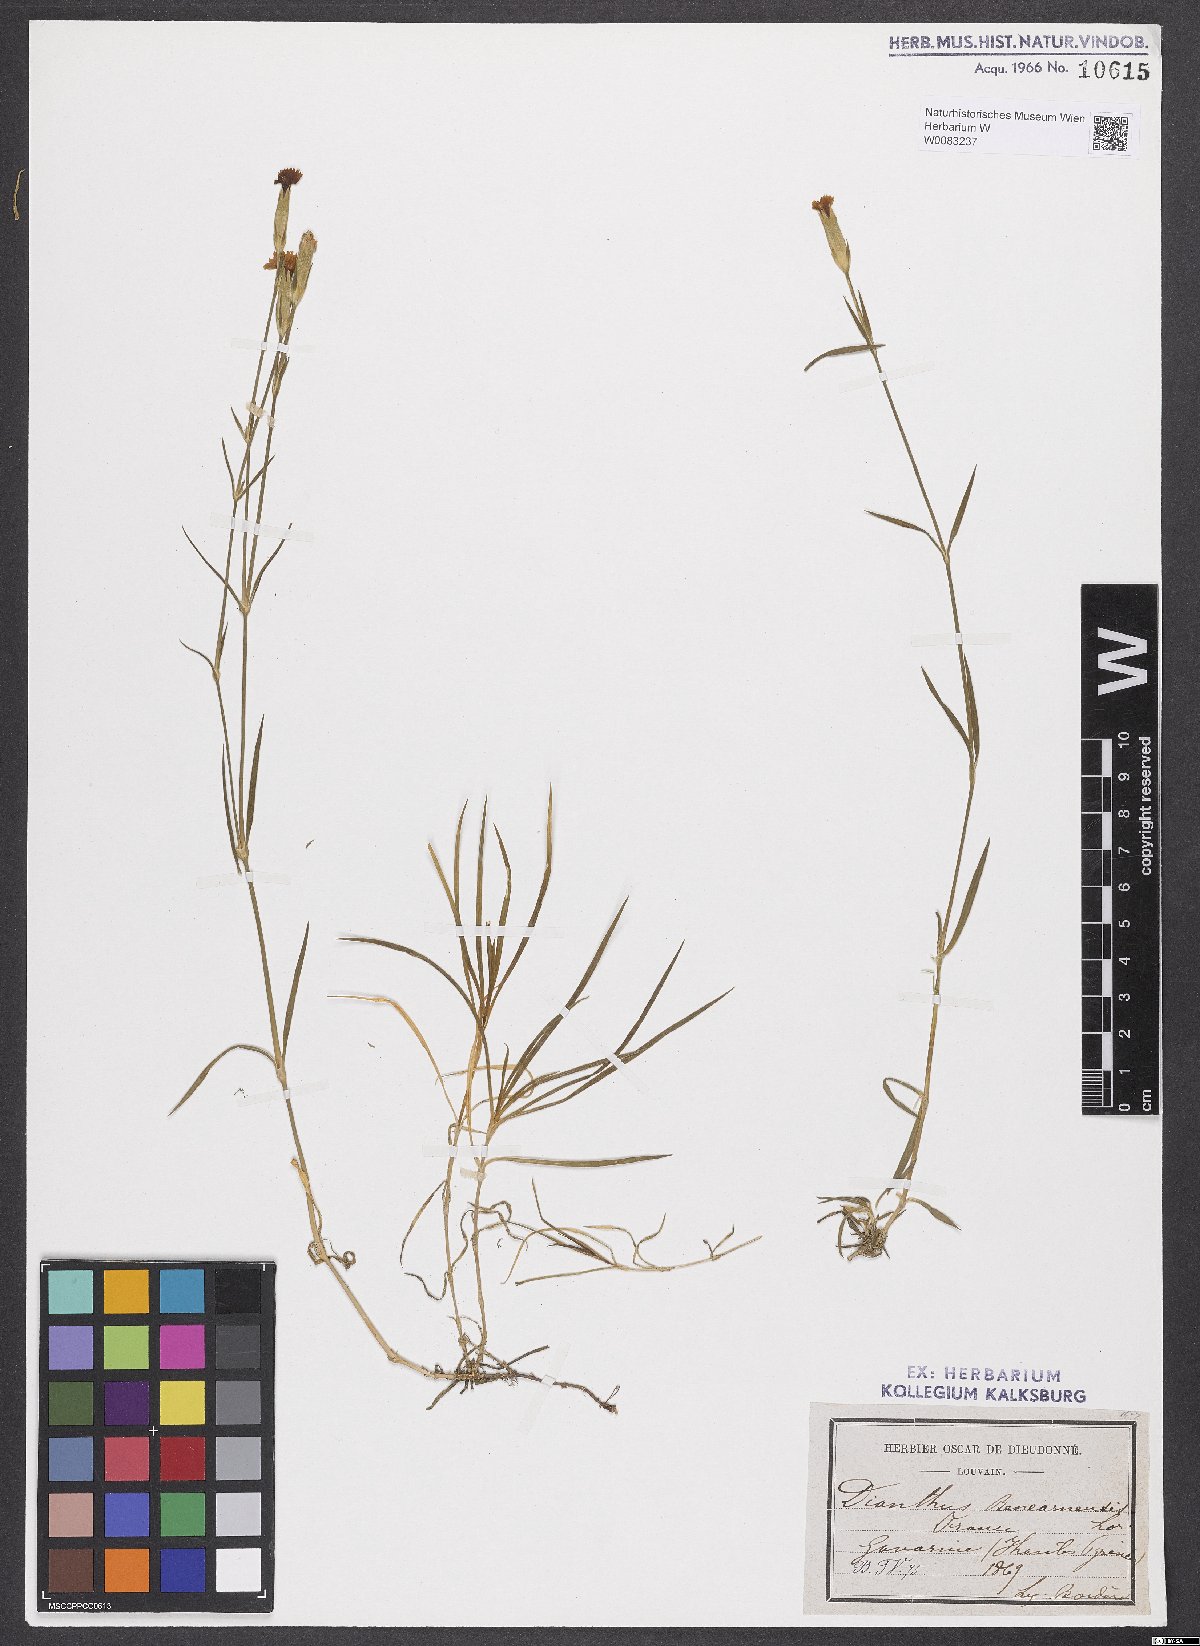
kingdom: Plantae
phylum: Tracheophyta
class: Magnoliopsida
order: Caryophyllales
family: Caryophyllaceae
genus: Dianthus
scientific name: Dianthus furcatus
